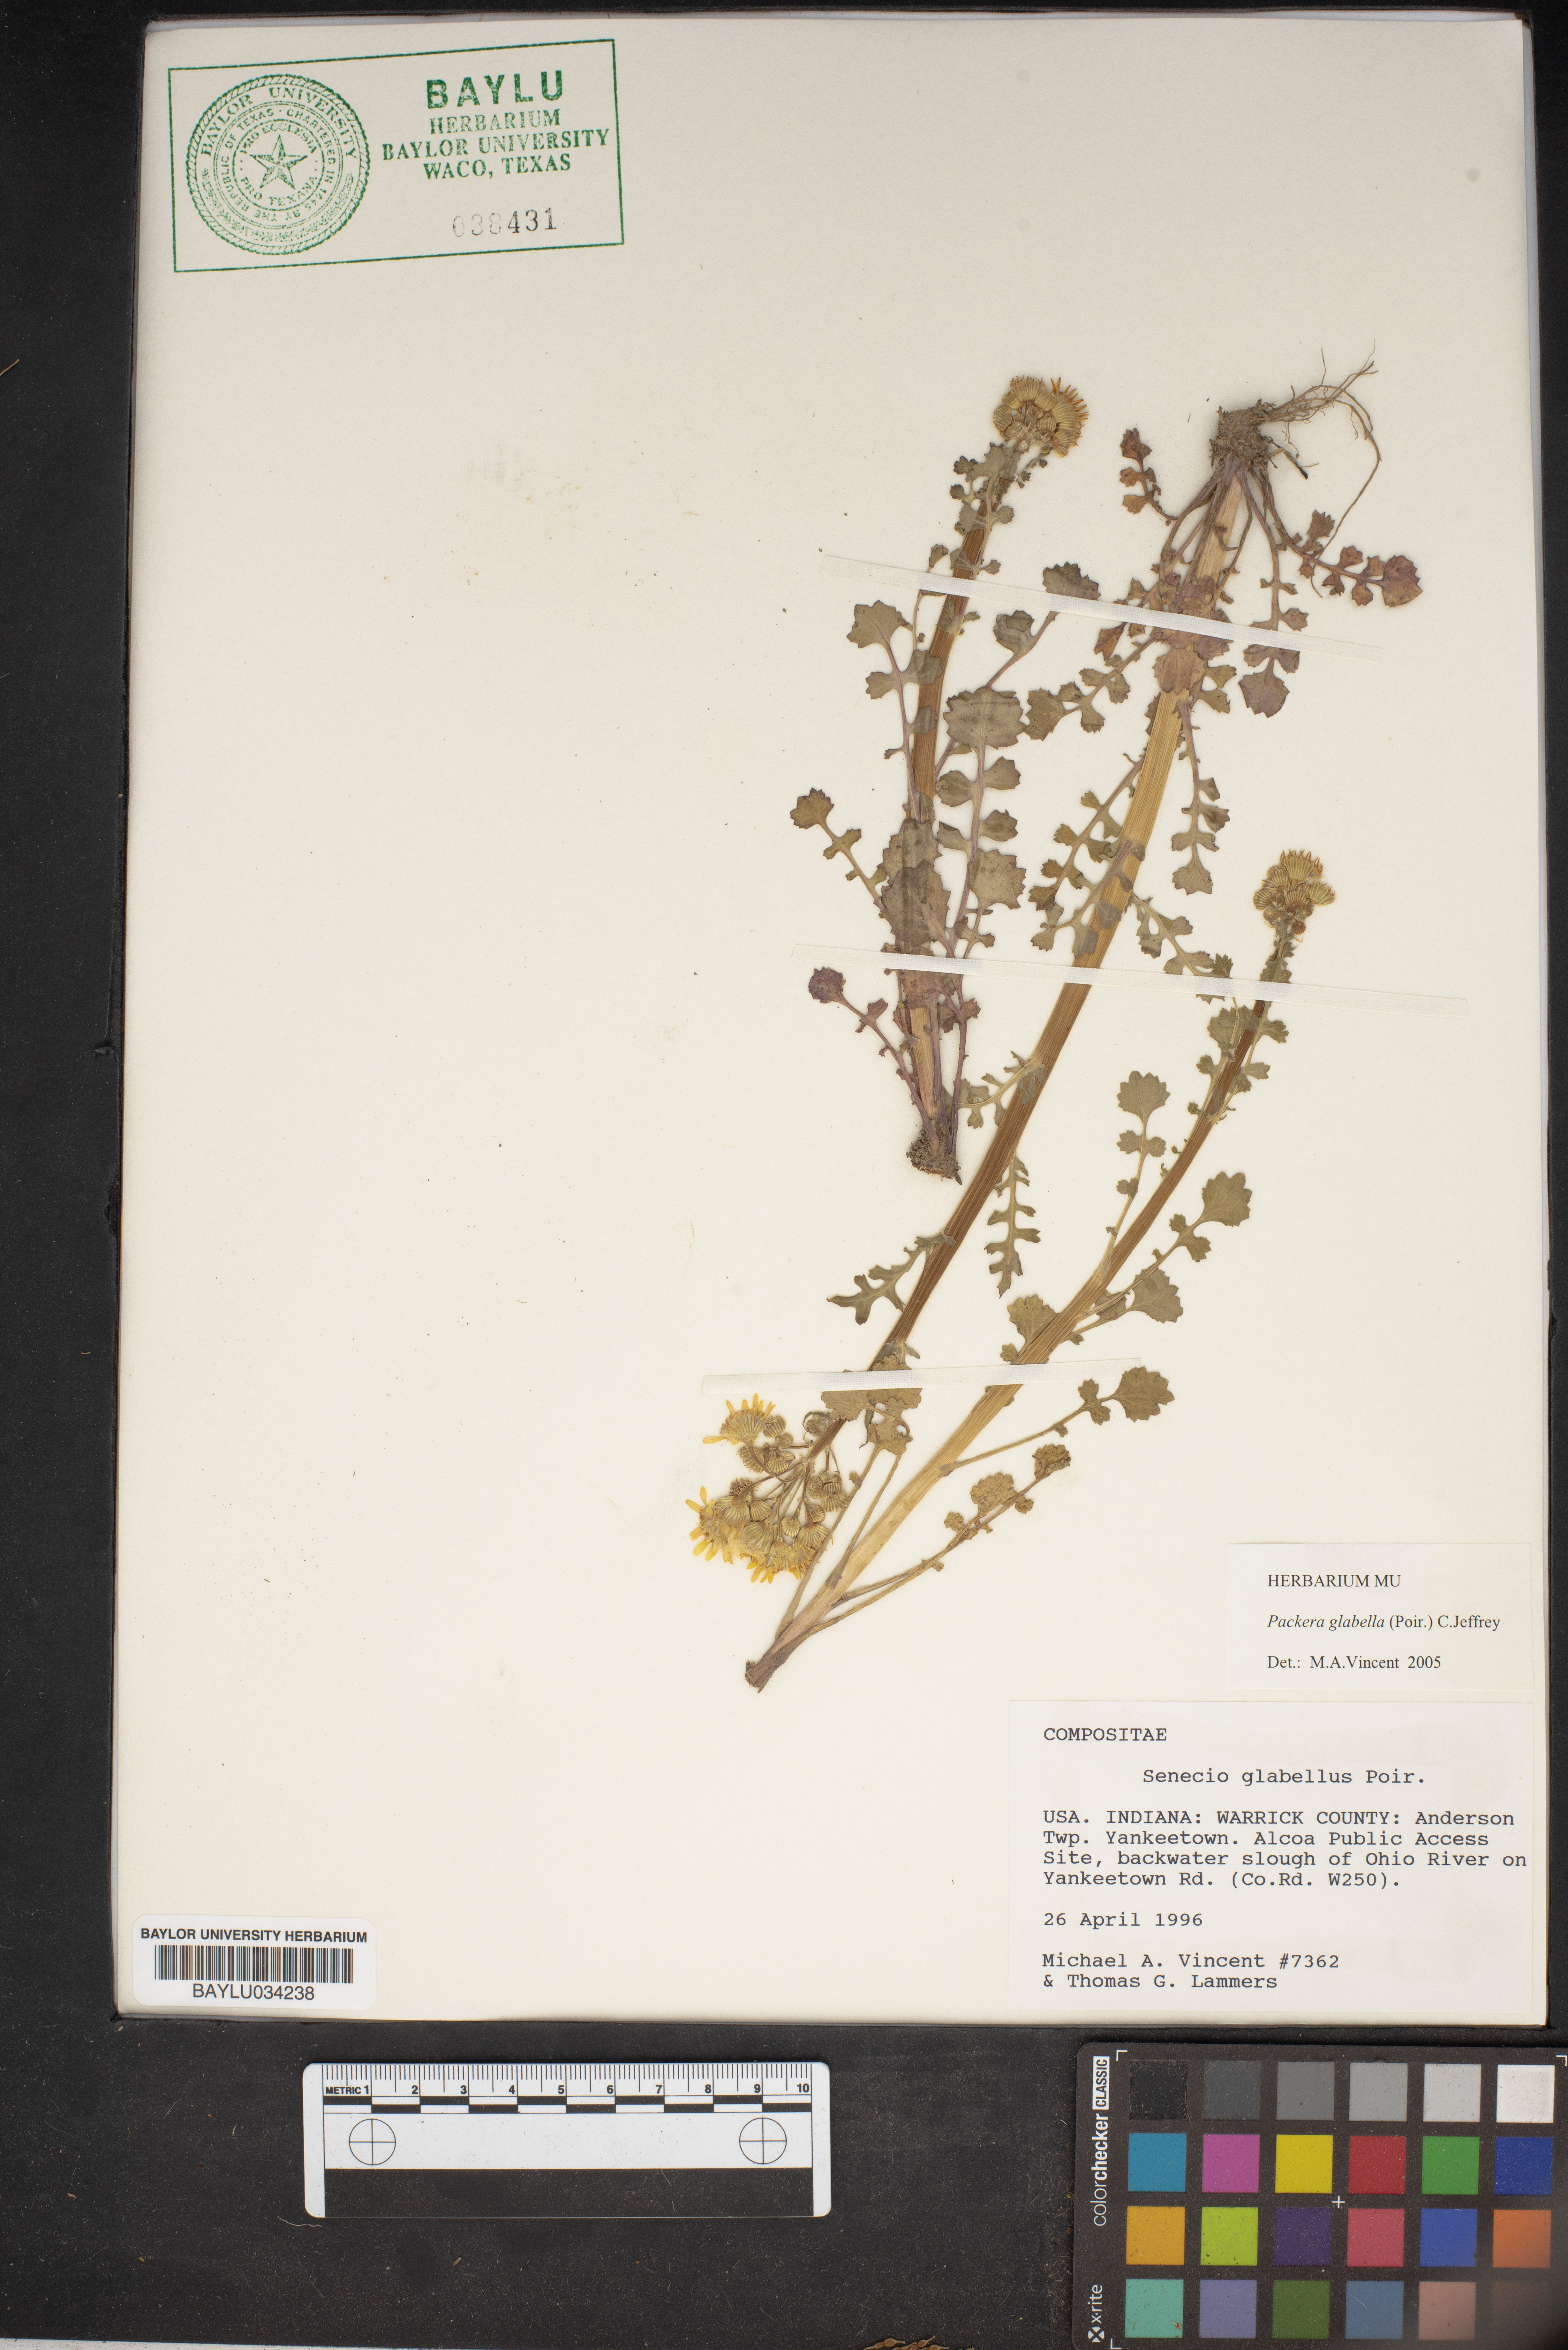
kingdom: Plantae
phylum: Tracheophyta
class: Magnoliopsida
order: Asterales
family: Asteraceae
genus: Packera
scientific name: Packera glabella
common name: Butterweed
